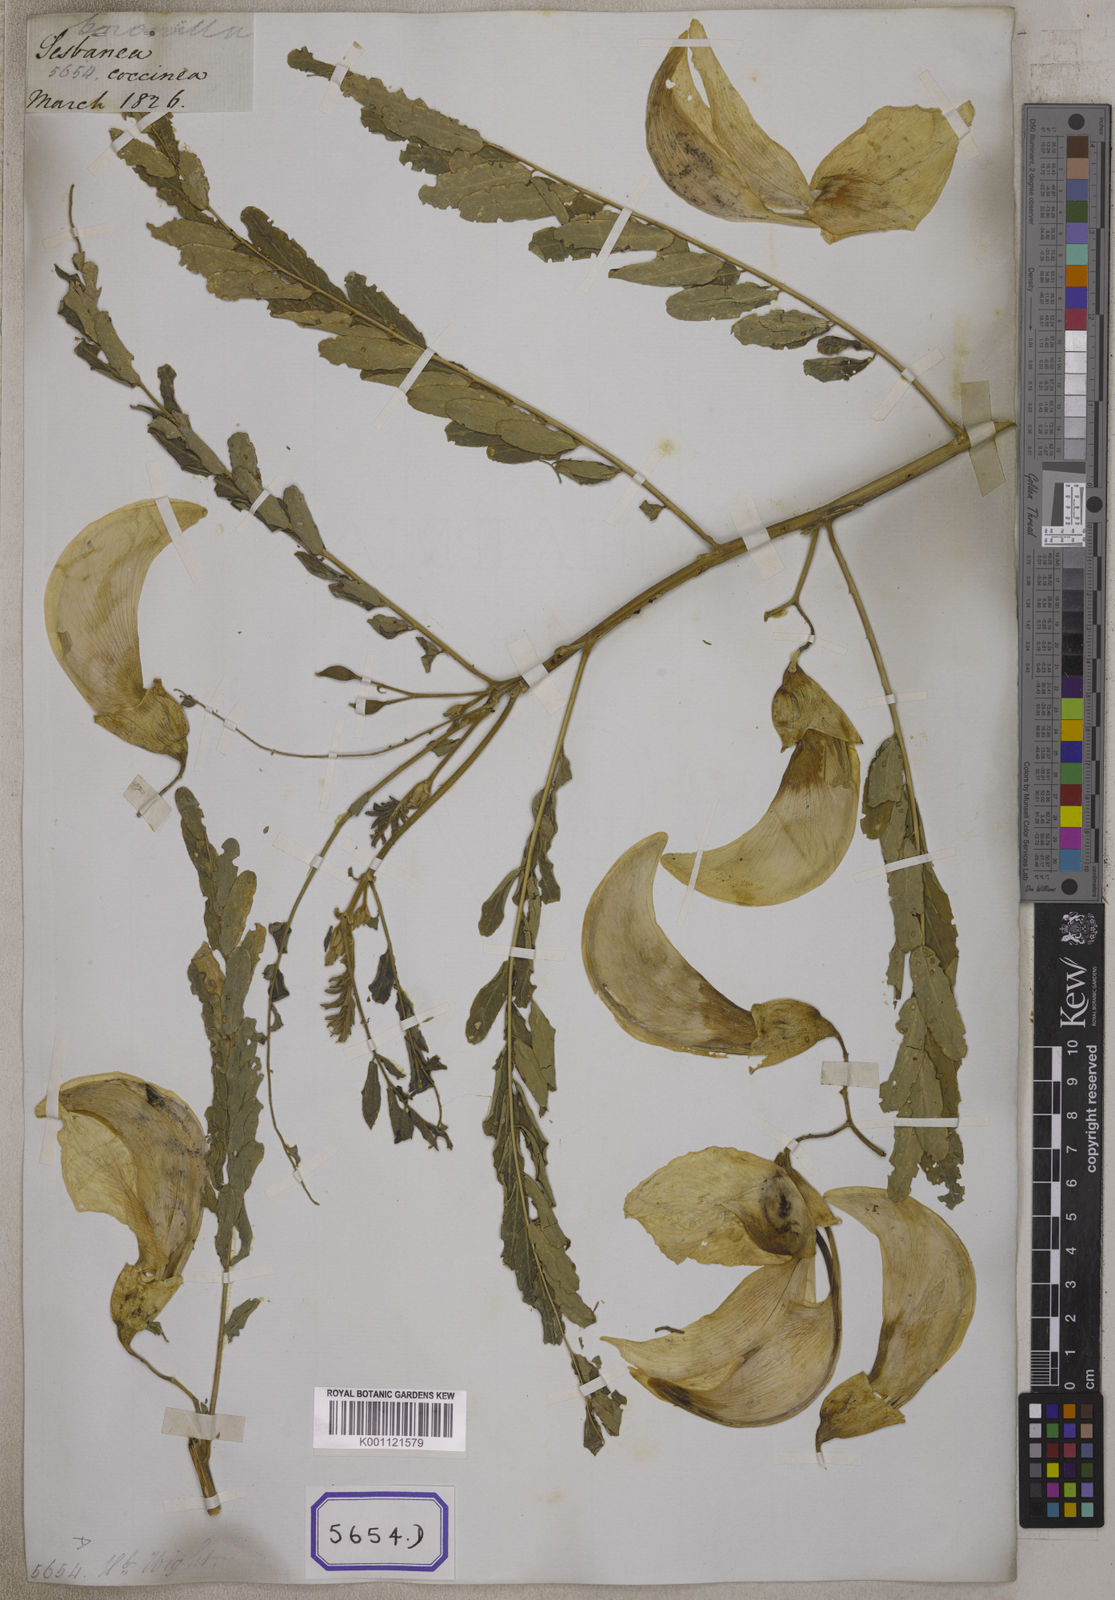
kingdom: Plantae
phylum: Tracheophyta
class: Magnoliopsida
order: Fabales
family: Fabaceae
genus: Sesbania
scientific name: Sesbania grandiflora
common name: Vegetable-hummingbird
